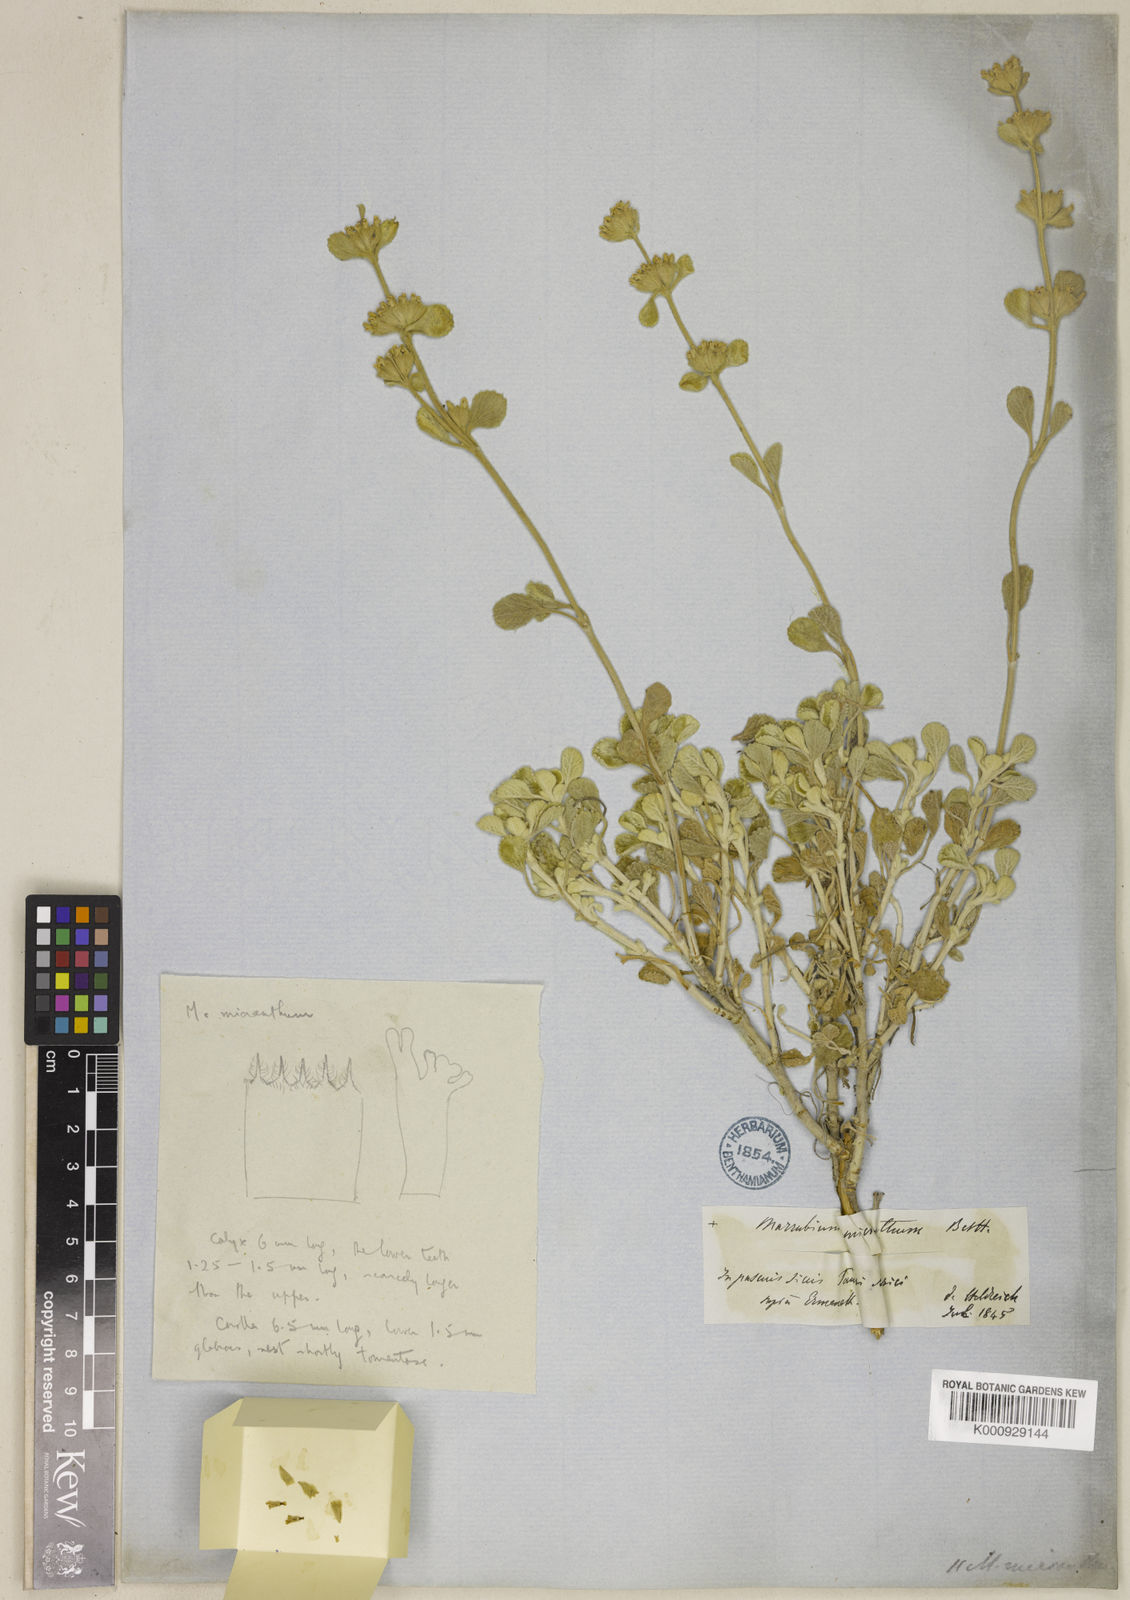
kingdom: Plantae
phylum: Tracheophyta
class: Magnoliopsida
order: Lamiales
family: Lamiaceae
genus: Marrubium
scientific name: Marrubium globosum
